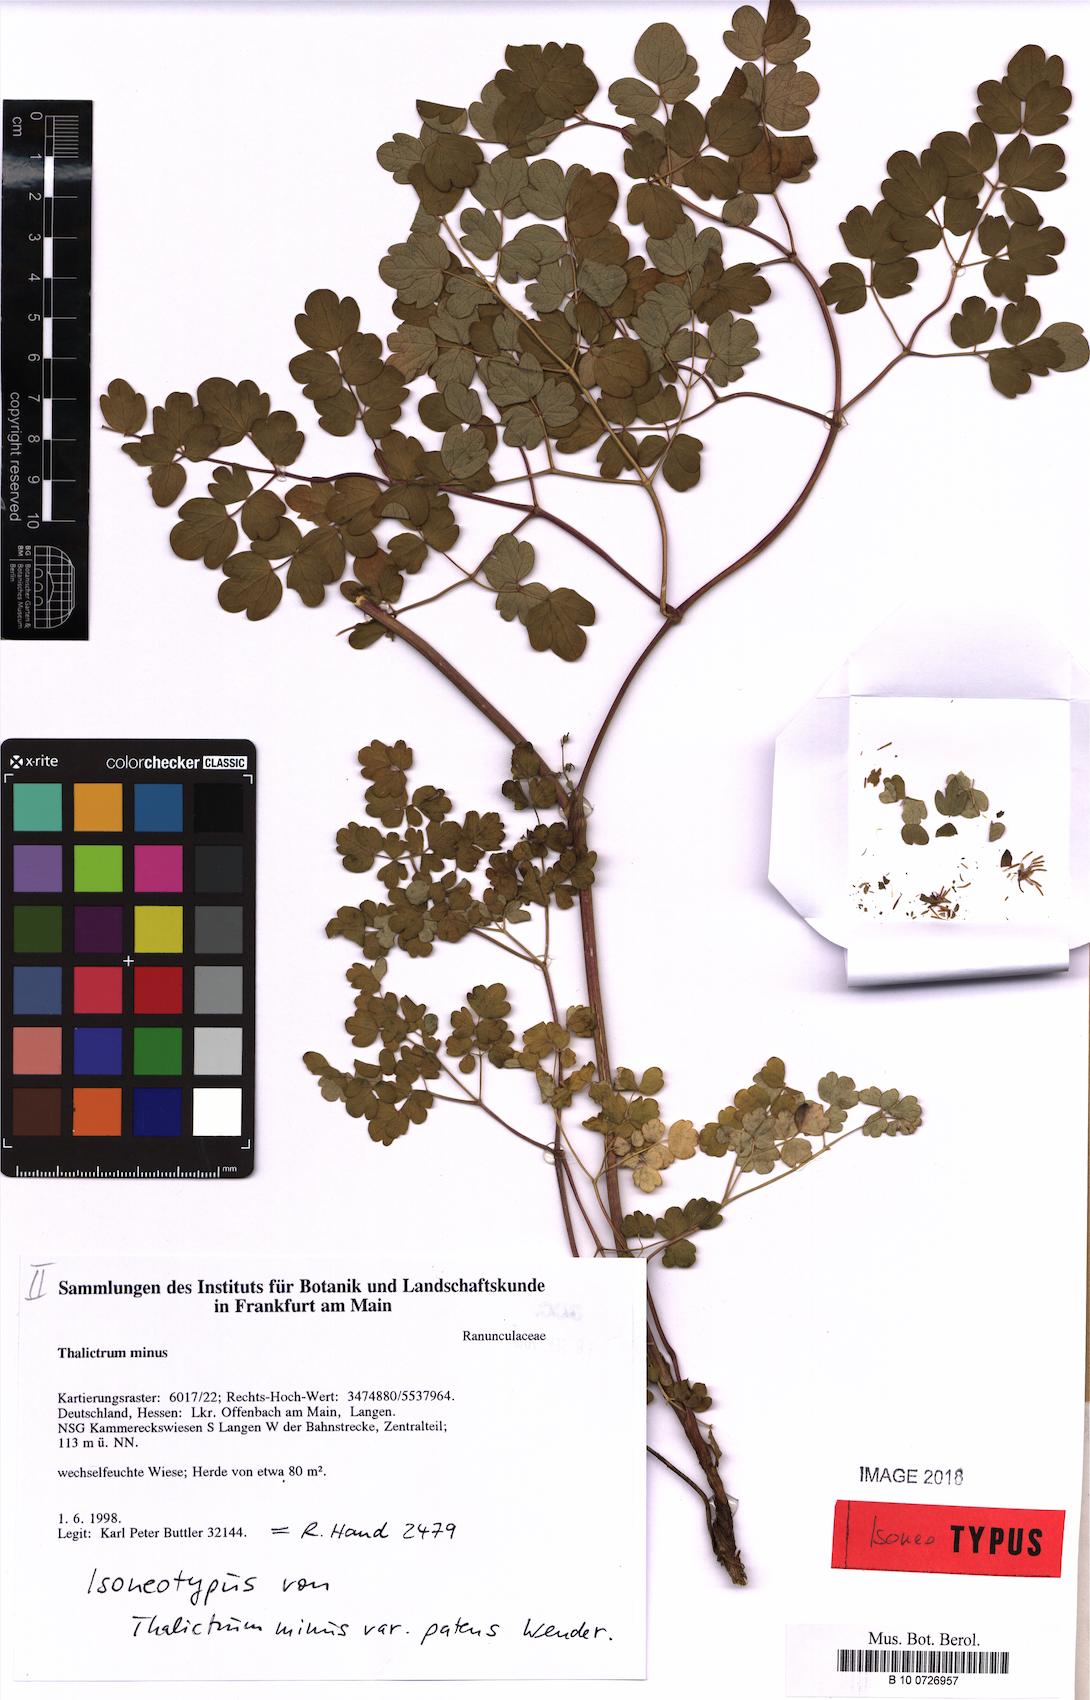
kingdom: Plantae
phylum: Tracheophyta
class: Magnoliopsida
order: Ranunculales
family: Ranunculaceae
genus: Thalictrum
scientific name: Thalictrum minus
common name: Lesser meadow-rue
